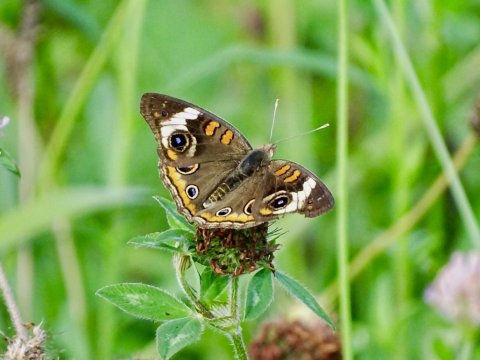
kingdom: Animalia
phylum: Arthropoda
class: Insecta
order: Lepidoptera
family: Nymphalidae
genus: Junonia
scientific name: Junonia coenia
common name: Common Buckeye
